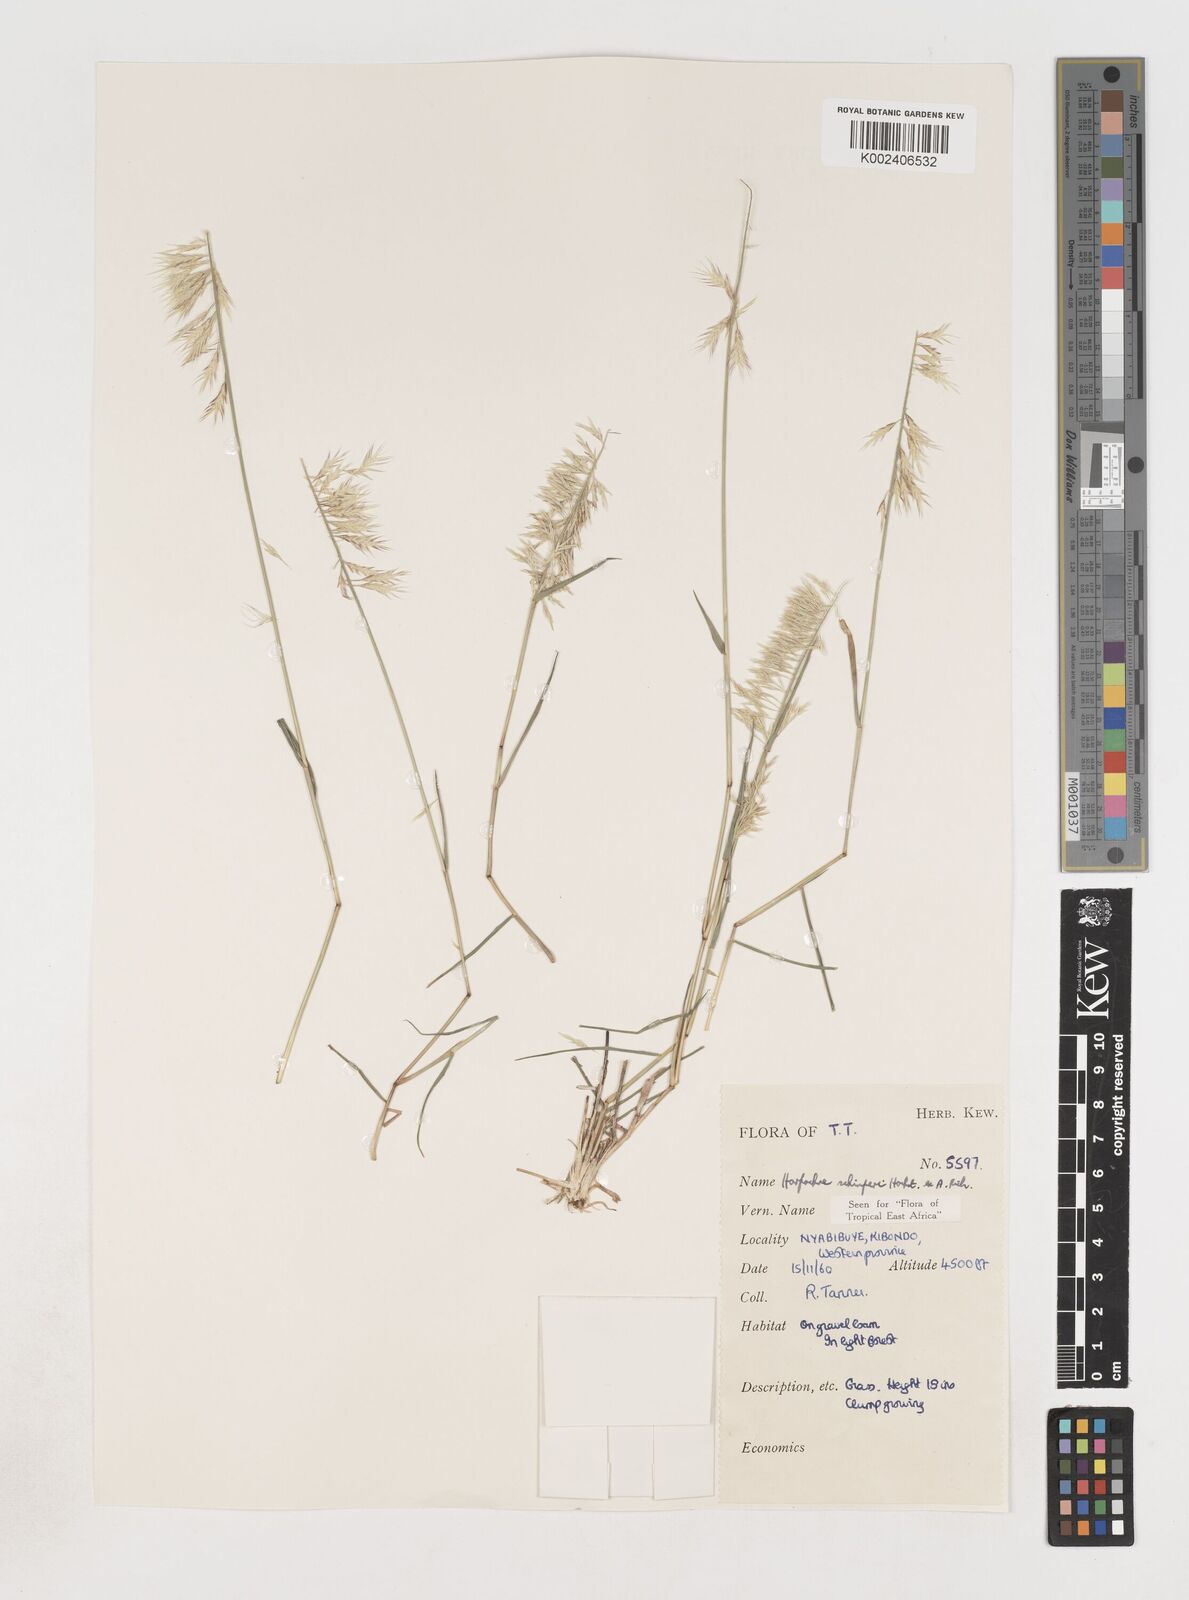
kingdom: Plantae
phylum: Tracheophyta
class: Liliopsida
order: Poales
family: Poaceae
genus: Harpachne
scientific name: Harpachne schimperi
